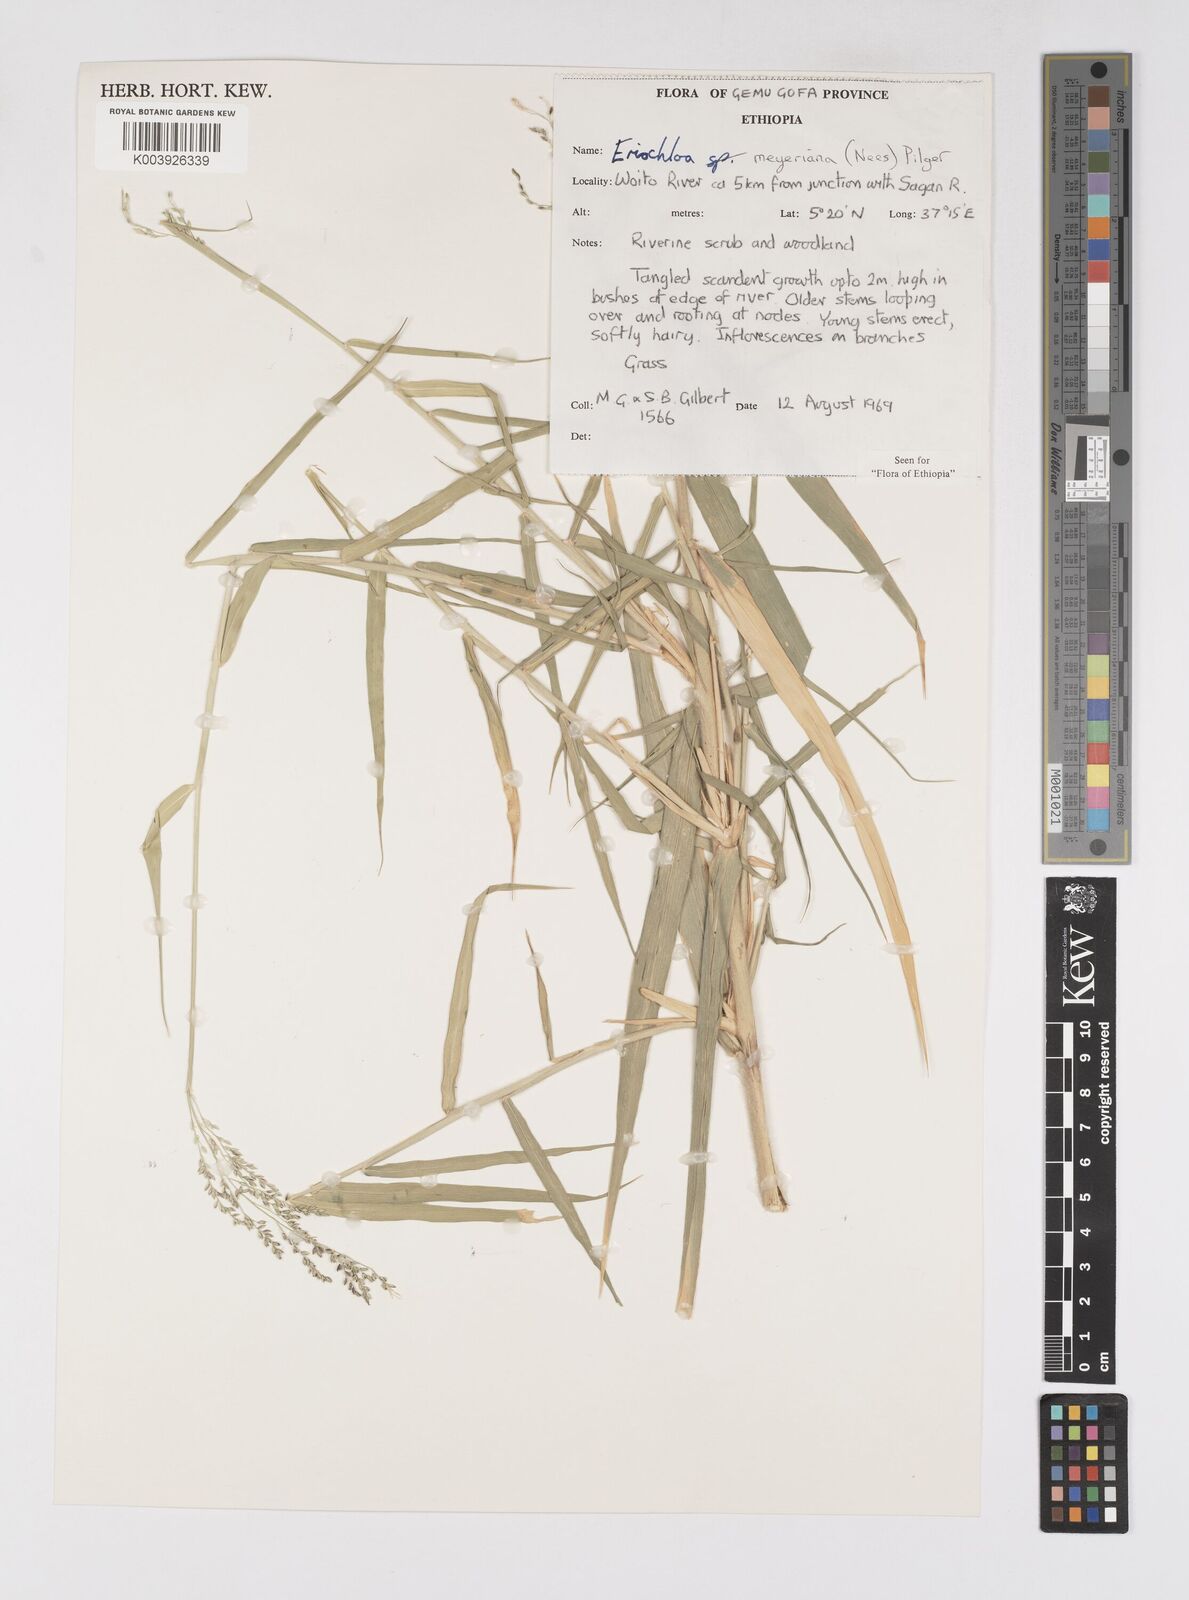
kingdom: Plantae
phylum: Tracheophyta
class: Liliopsida
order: Poales
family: Poaceae
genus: Eriochloa
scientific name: Eriochloa meyeriana
